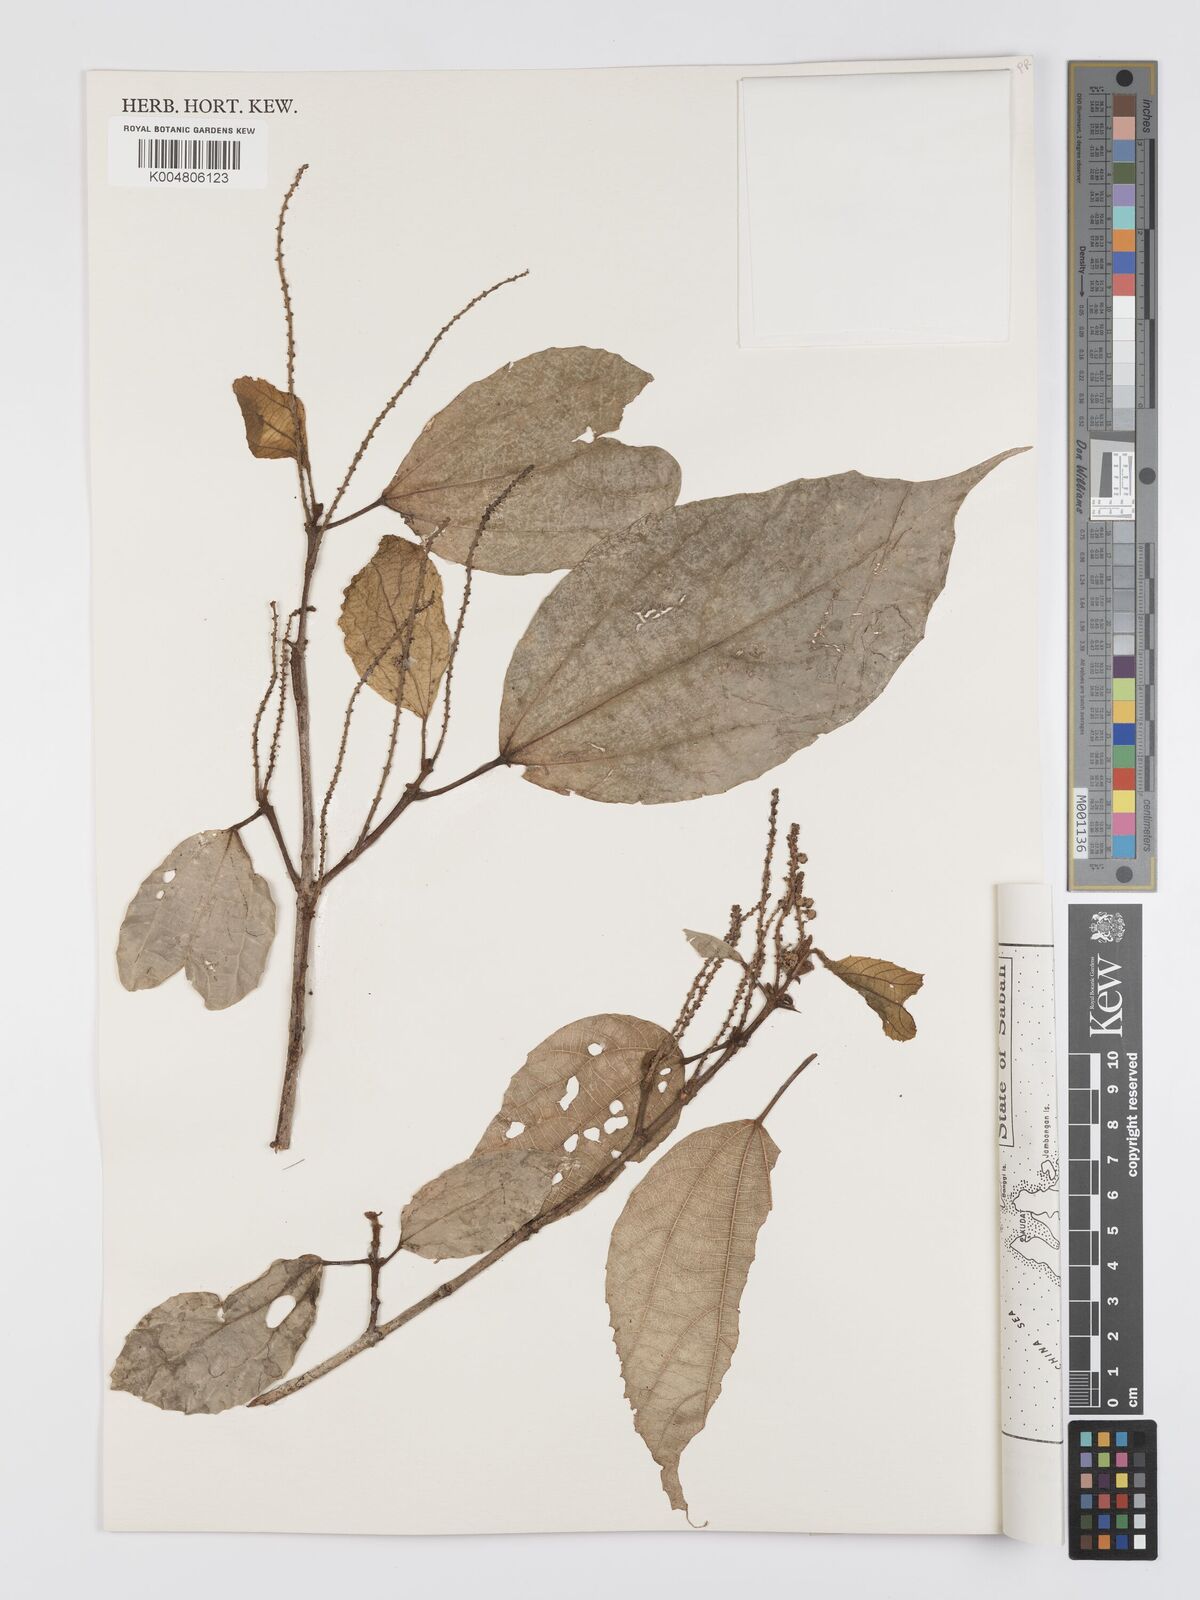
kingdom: Plantae
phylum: Tracheophyta
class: Magnoliopsida
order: Malpighiales
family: Euphorbiaceae
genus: Mallotus
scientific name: Mallotus korthalsii
